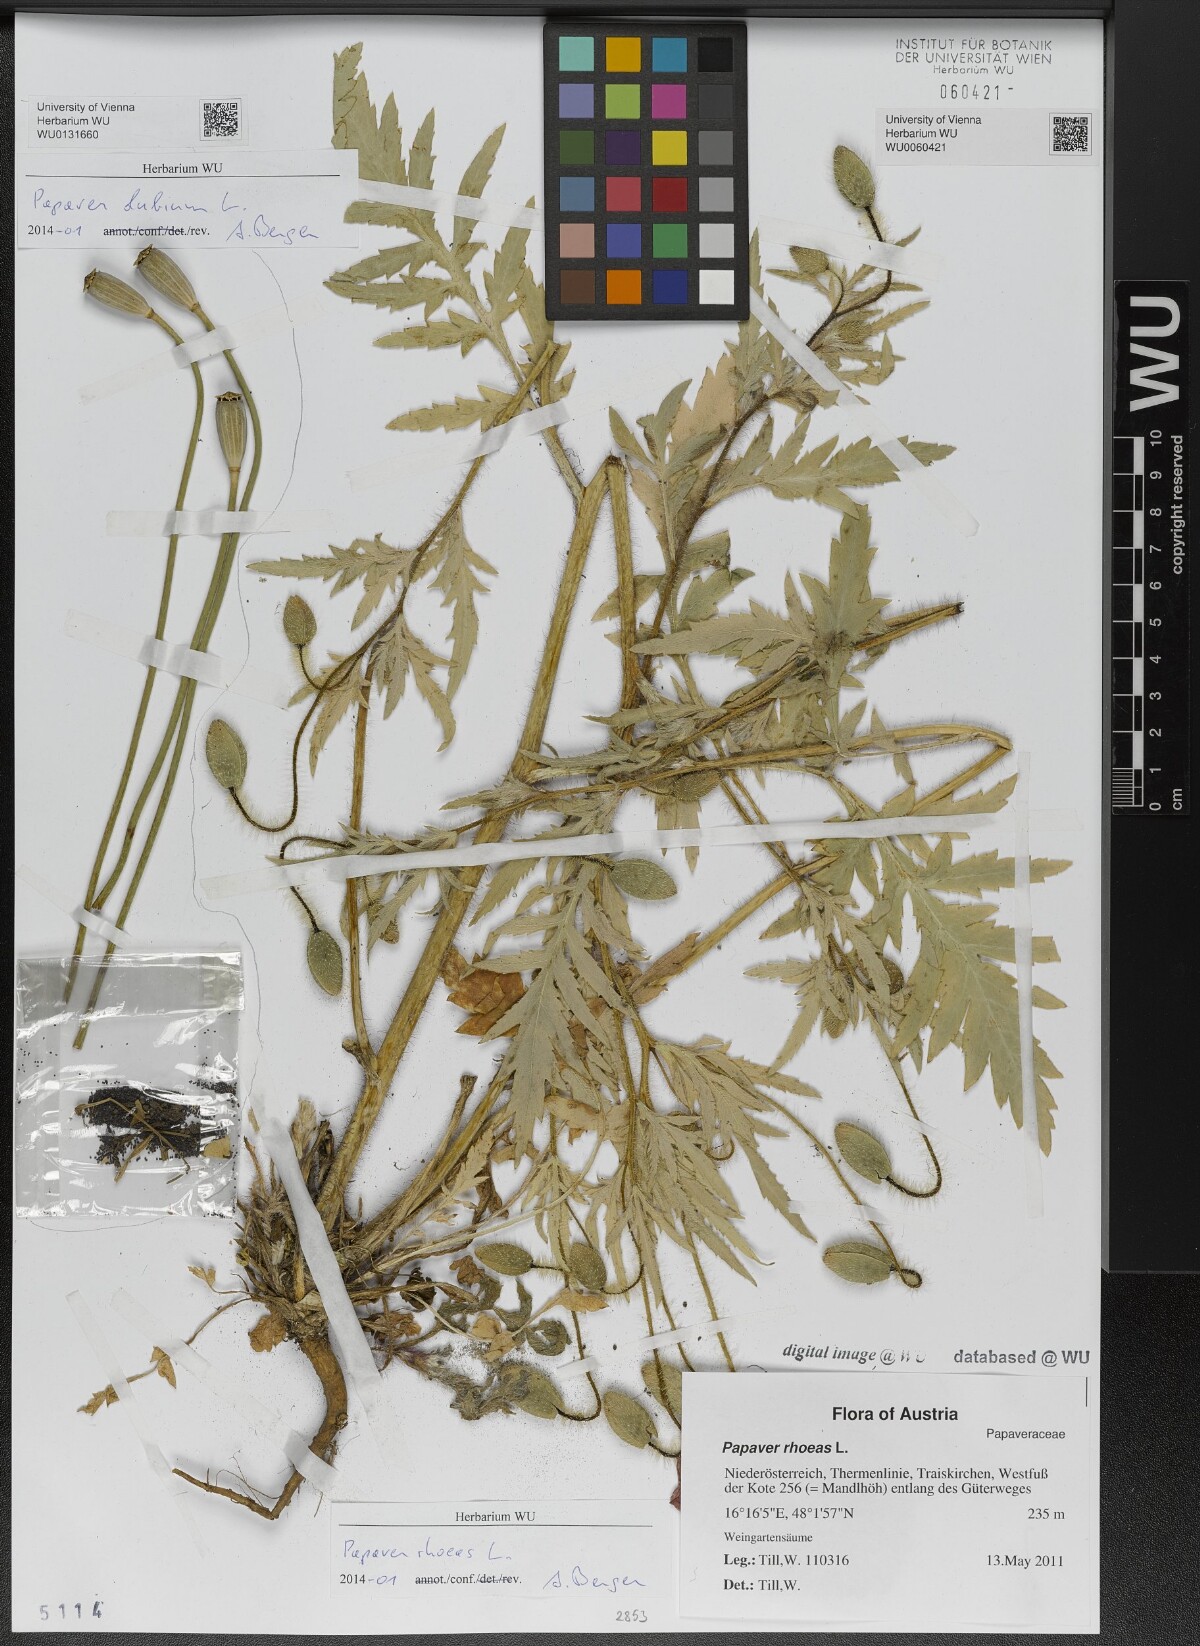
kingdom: Plantae
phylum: Tracheophyta
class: Magnoliopsida
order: Ranunculales
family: Papaveraceae
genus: Papaver
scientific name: Papaver dubium
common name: Long-headed poppy
